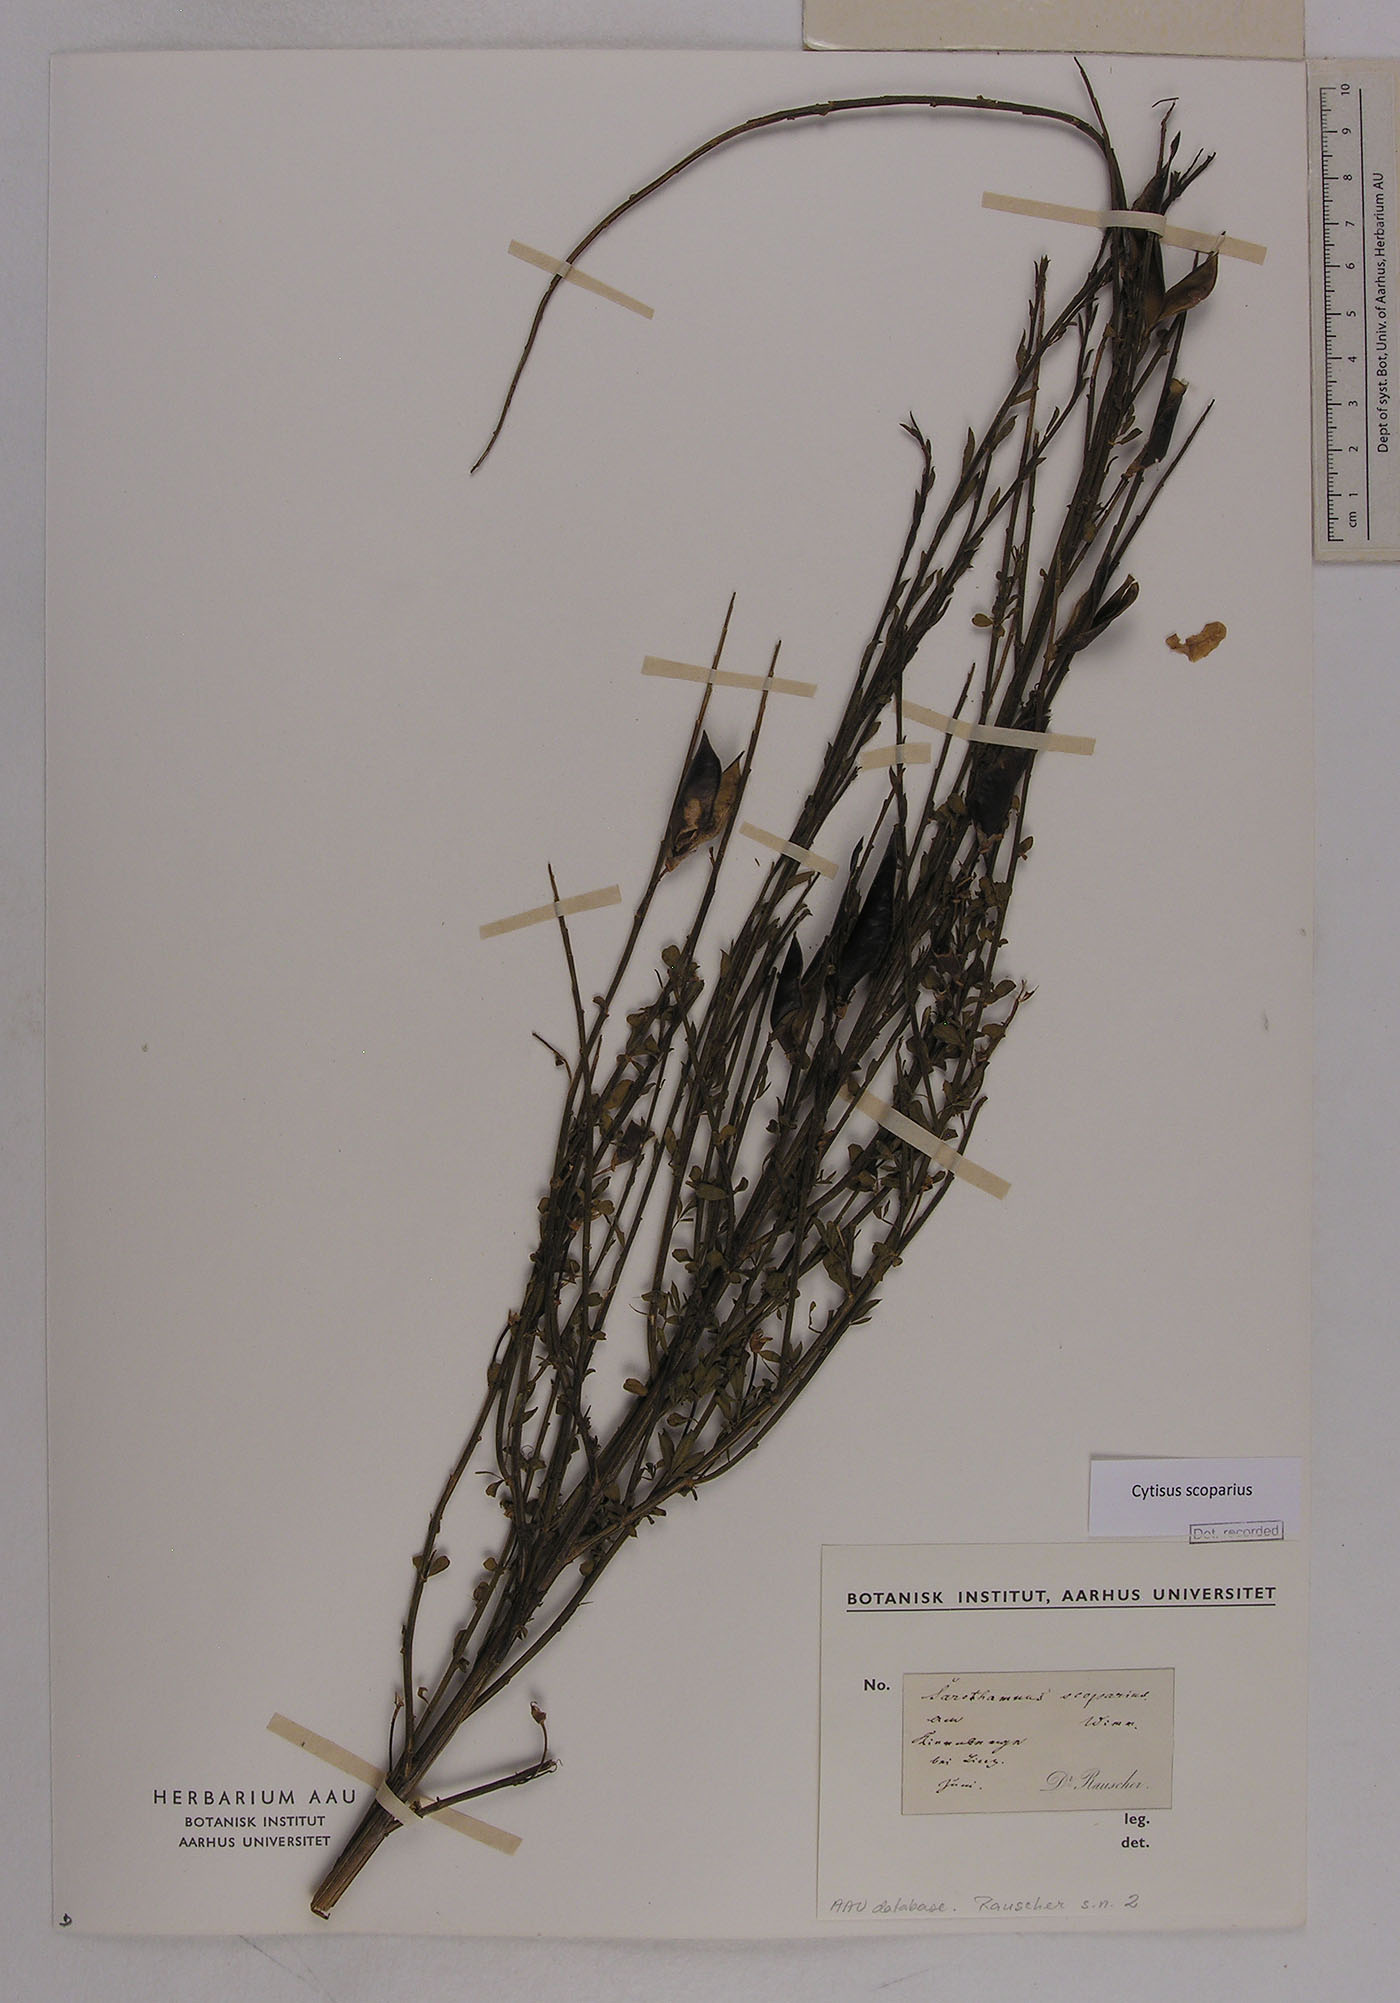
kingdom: Plantae
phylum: Tracheophyta
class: Magnoliopsida
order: Fabales
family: Fabaceae
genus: Cytisus
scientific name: Cytisus scoparius
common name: Scotch broom
